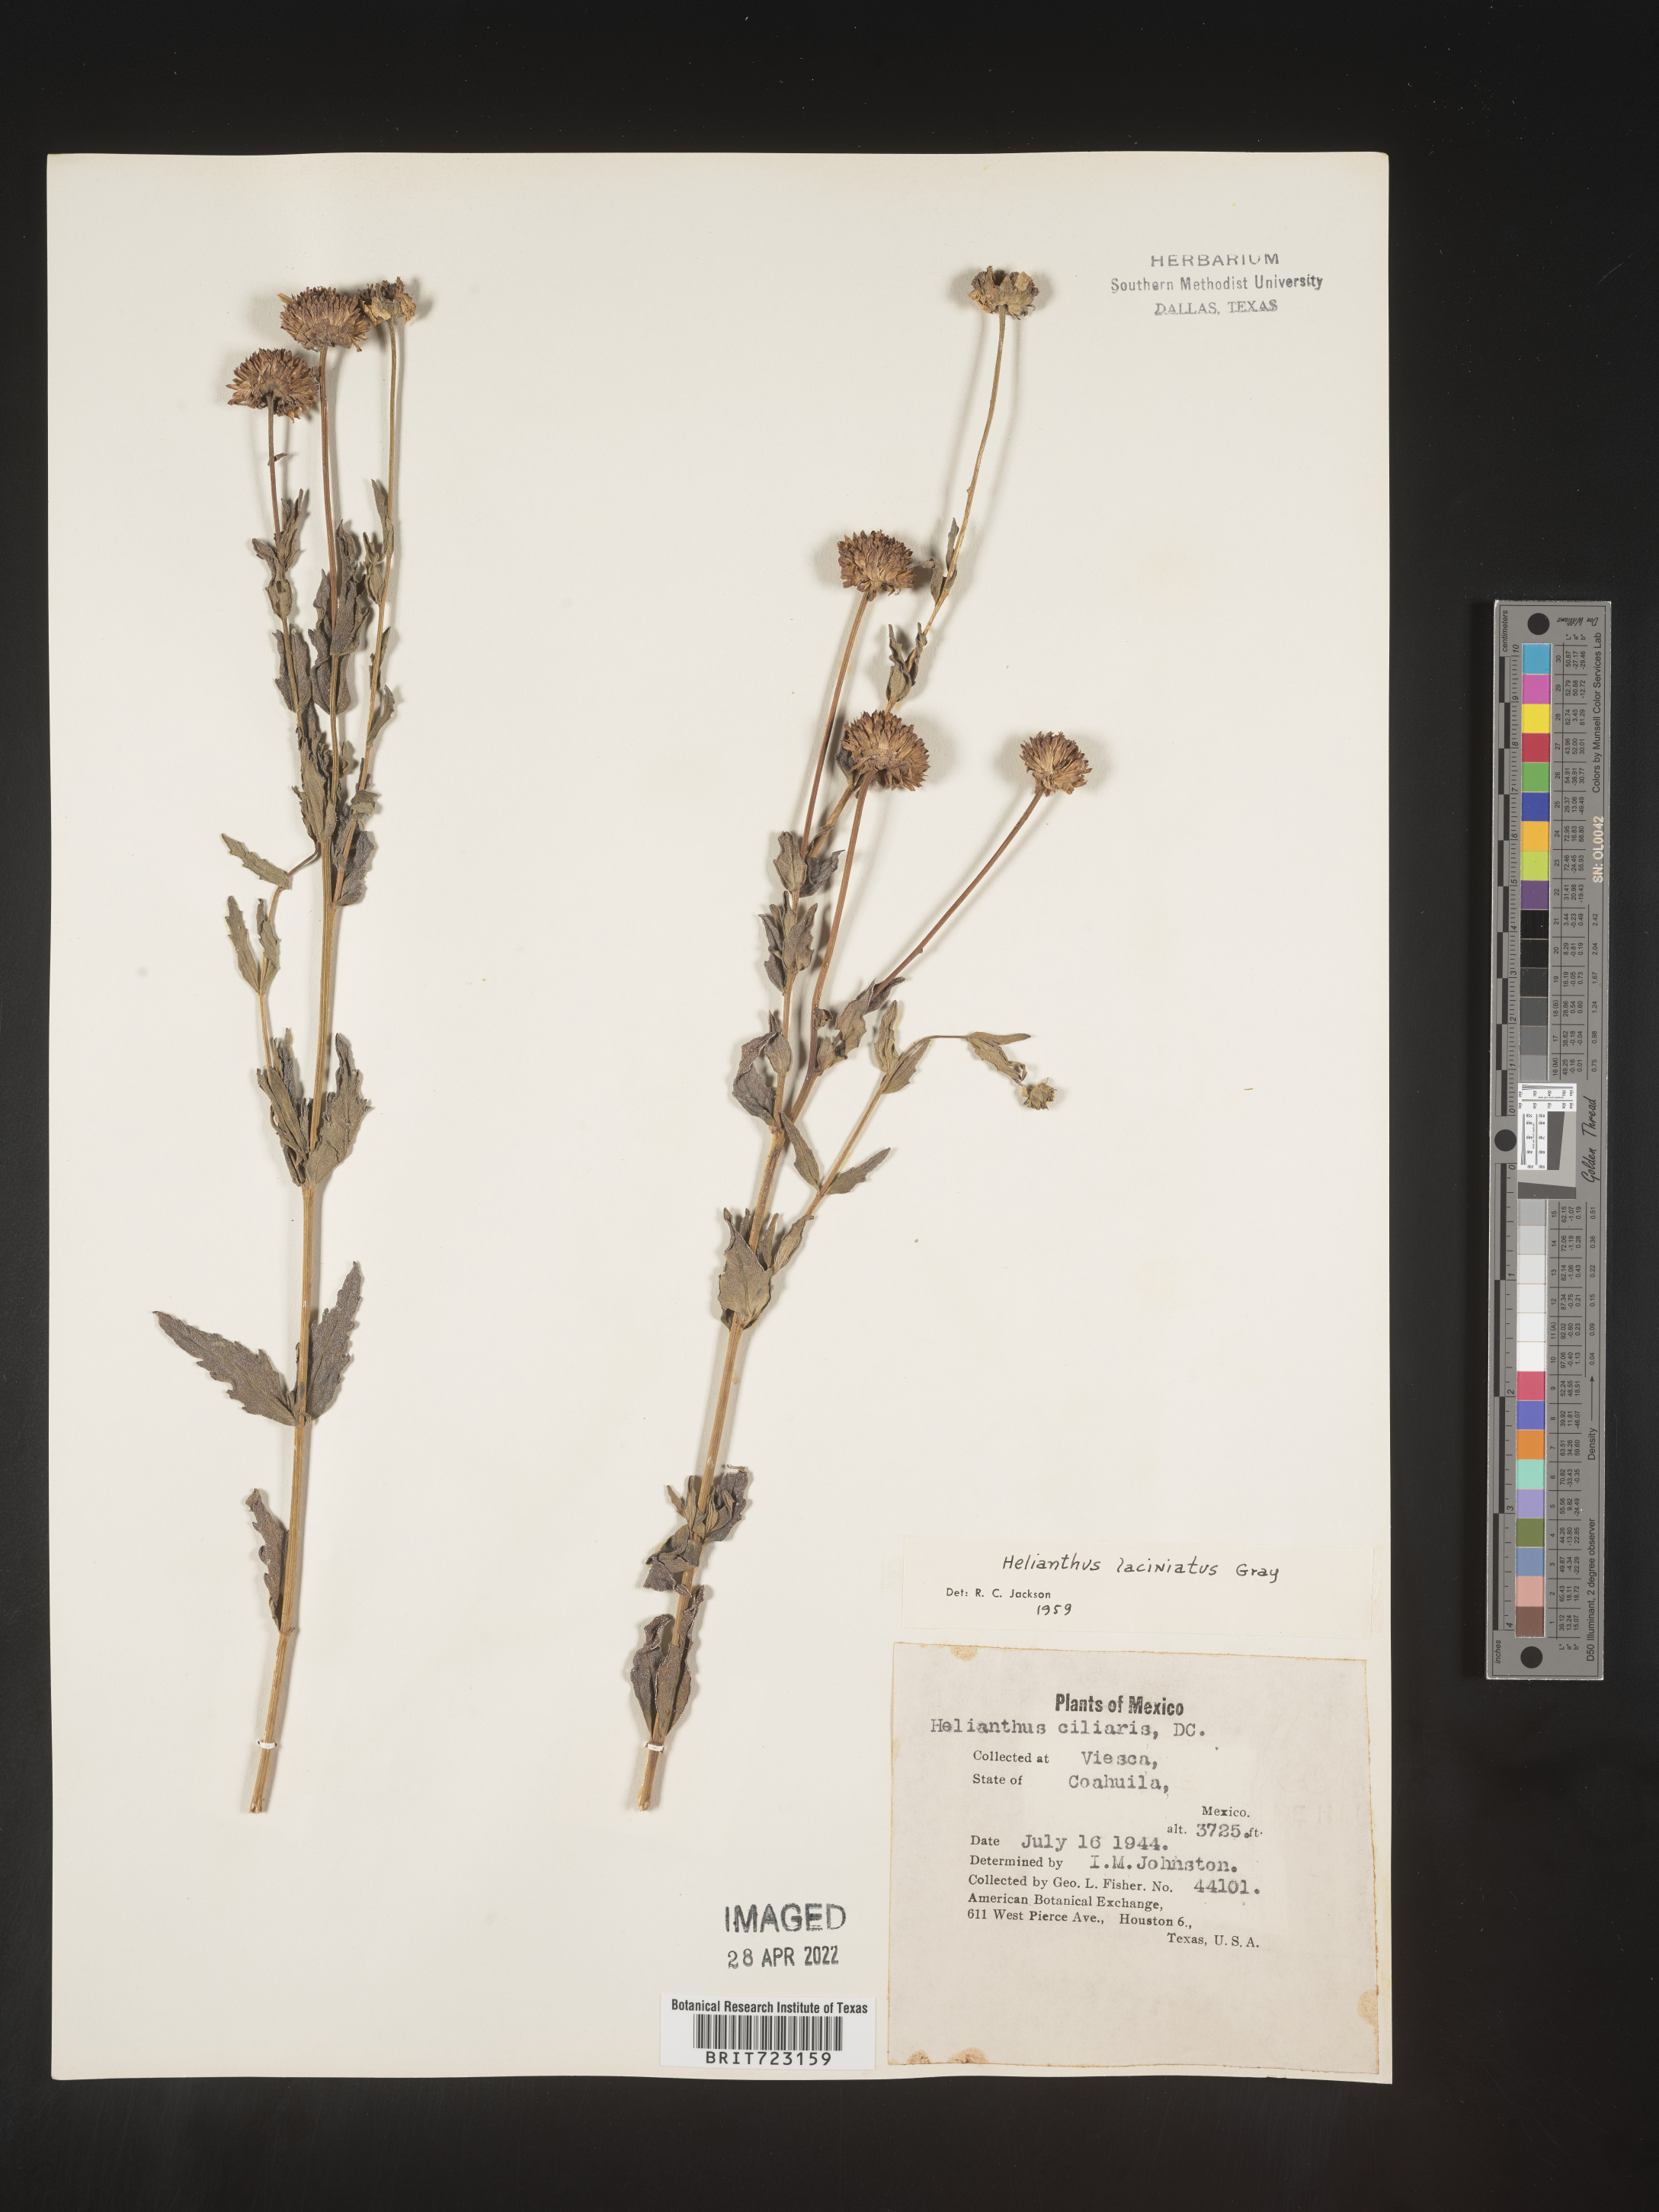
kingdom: Plantae
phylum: Tracheophyta
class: Magnoliopsida
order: Asterales
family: Asteraceae
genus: Helianthus
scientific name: Helianthus
